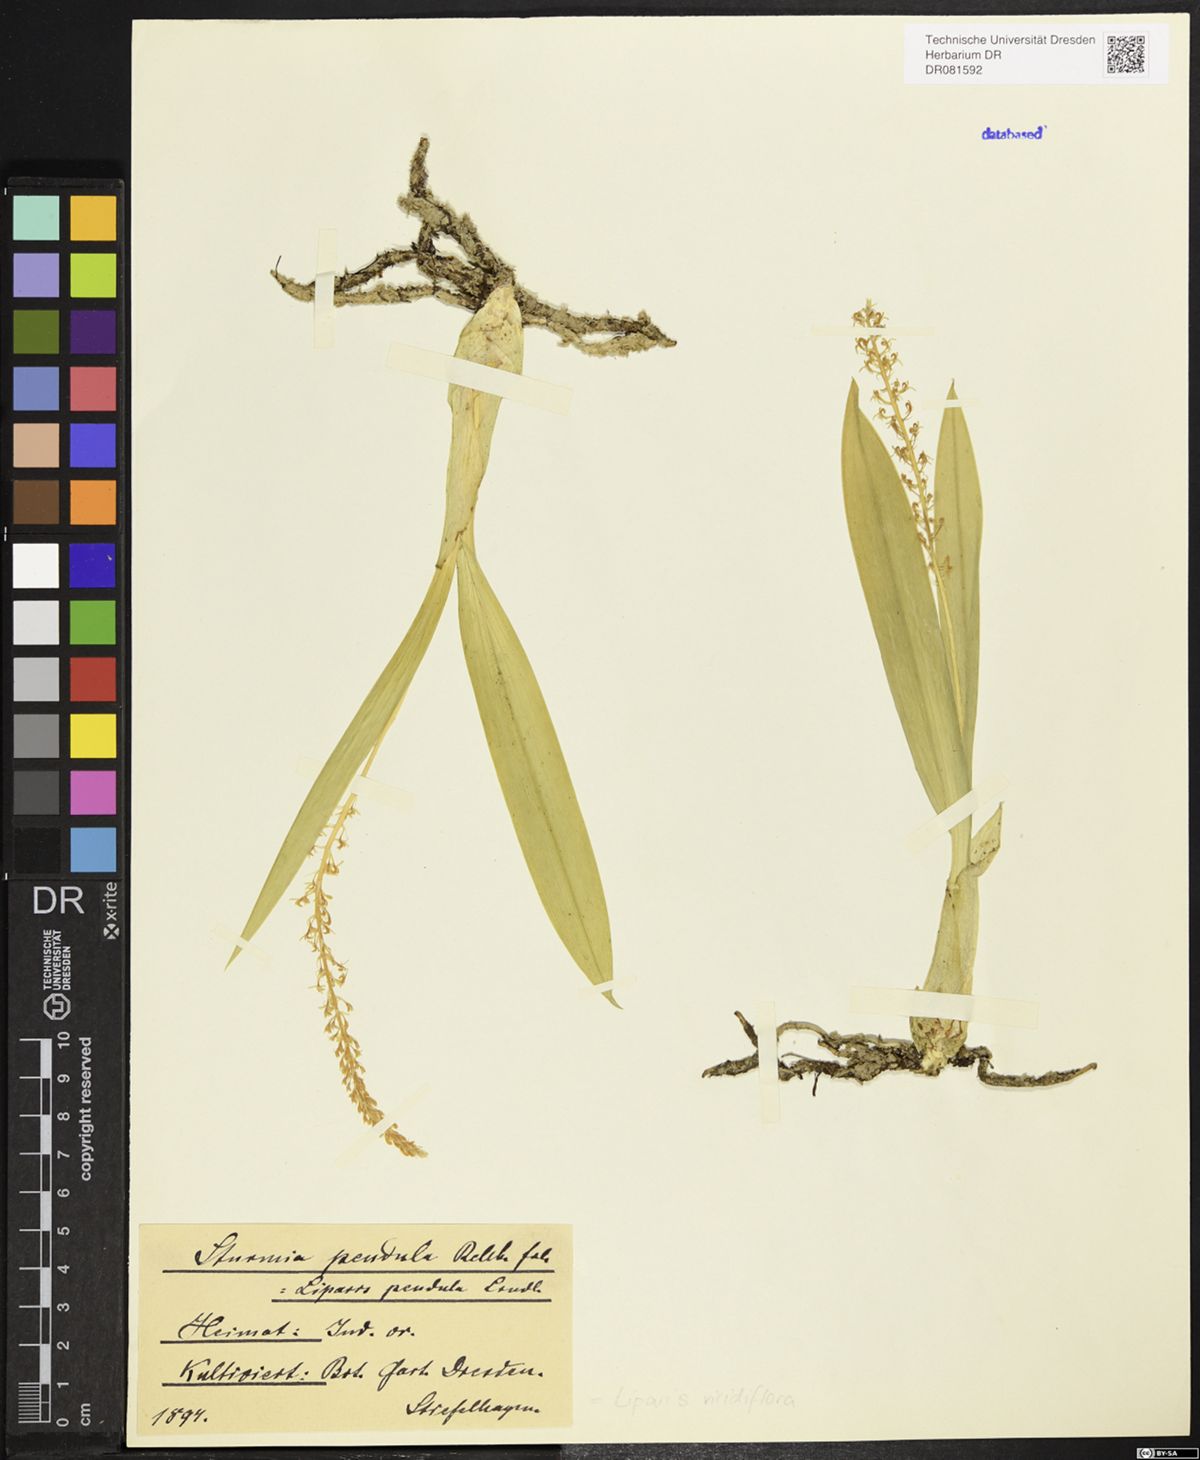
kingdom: Plantae
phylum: Tracheophyta
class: Liliopsida
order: Asparagales
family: Orchidaceae
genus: Liparis
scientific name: Liparis viridiflora
